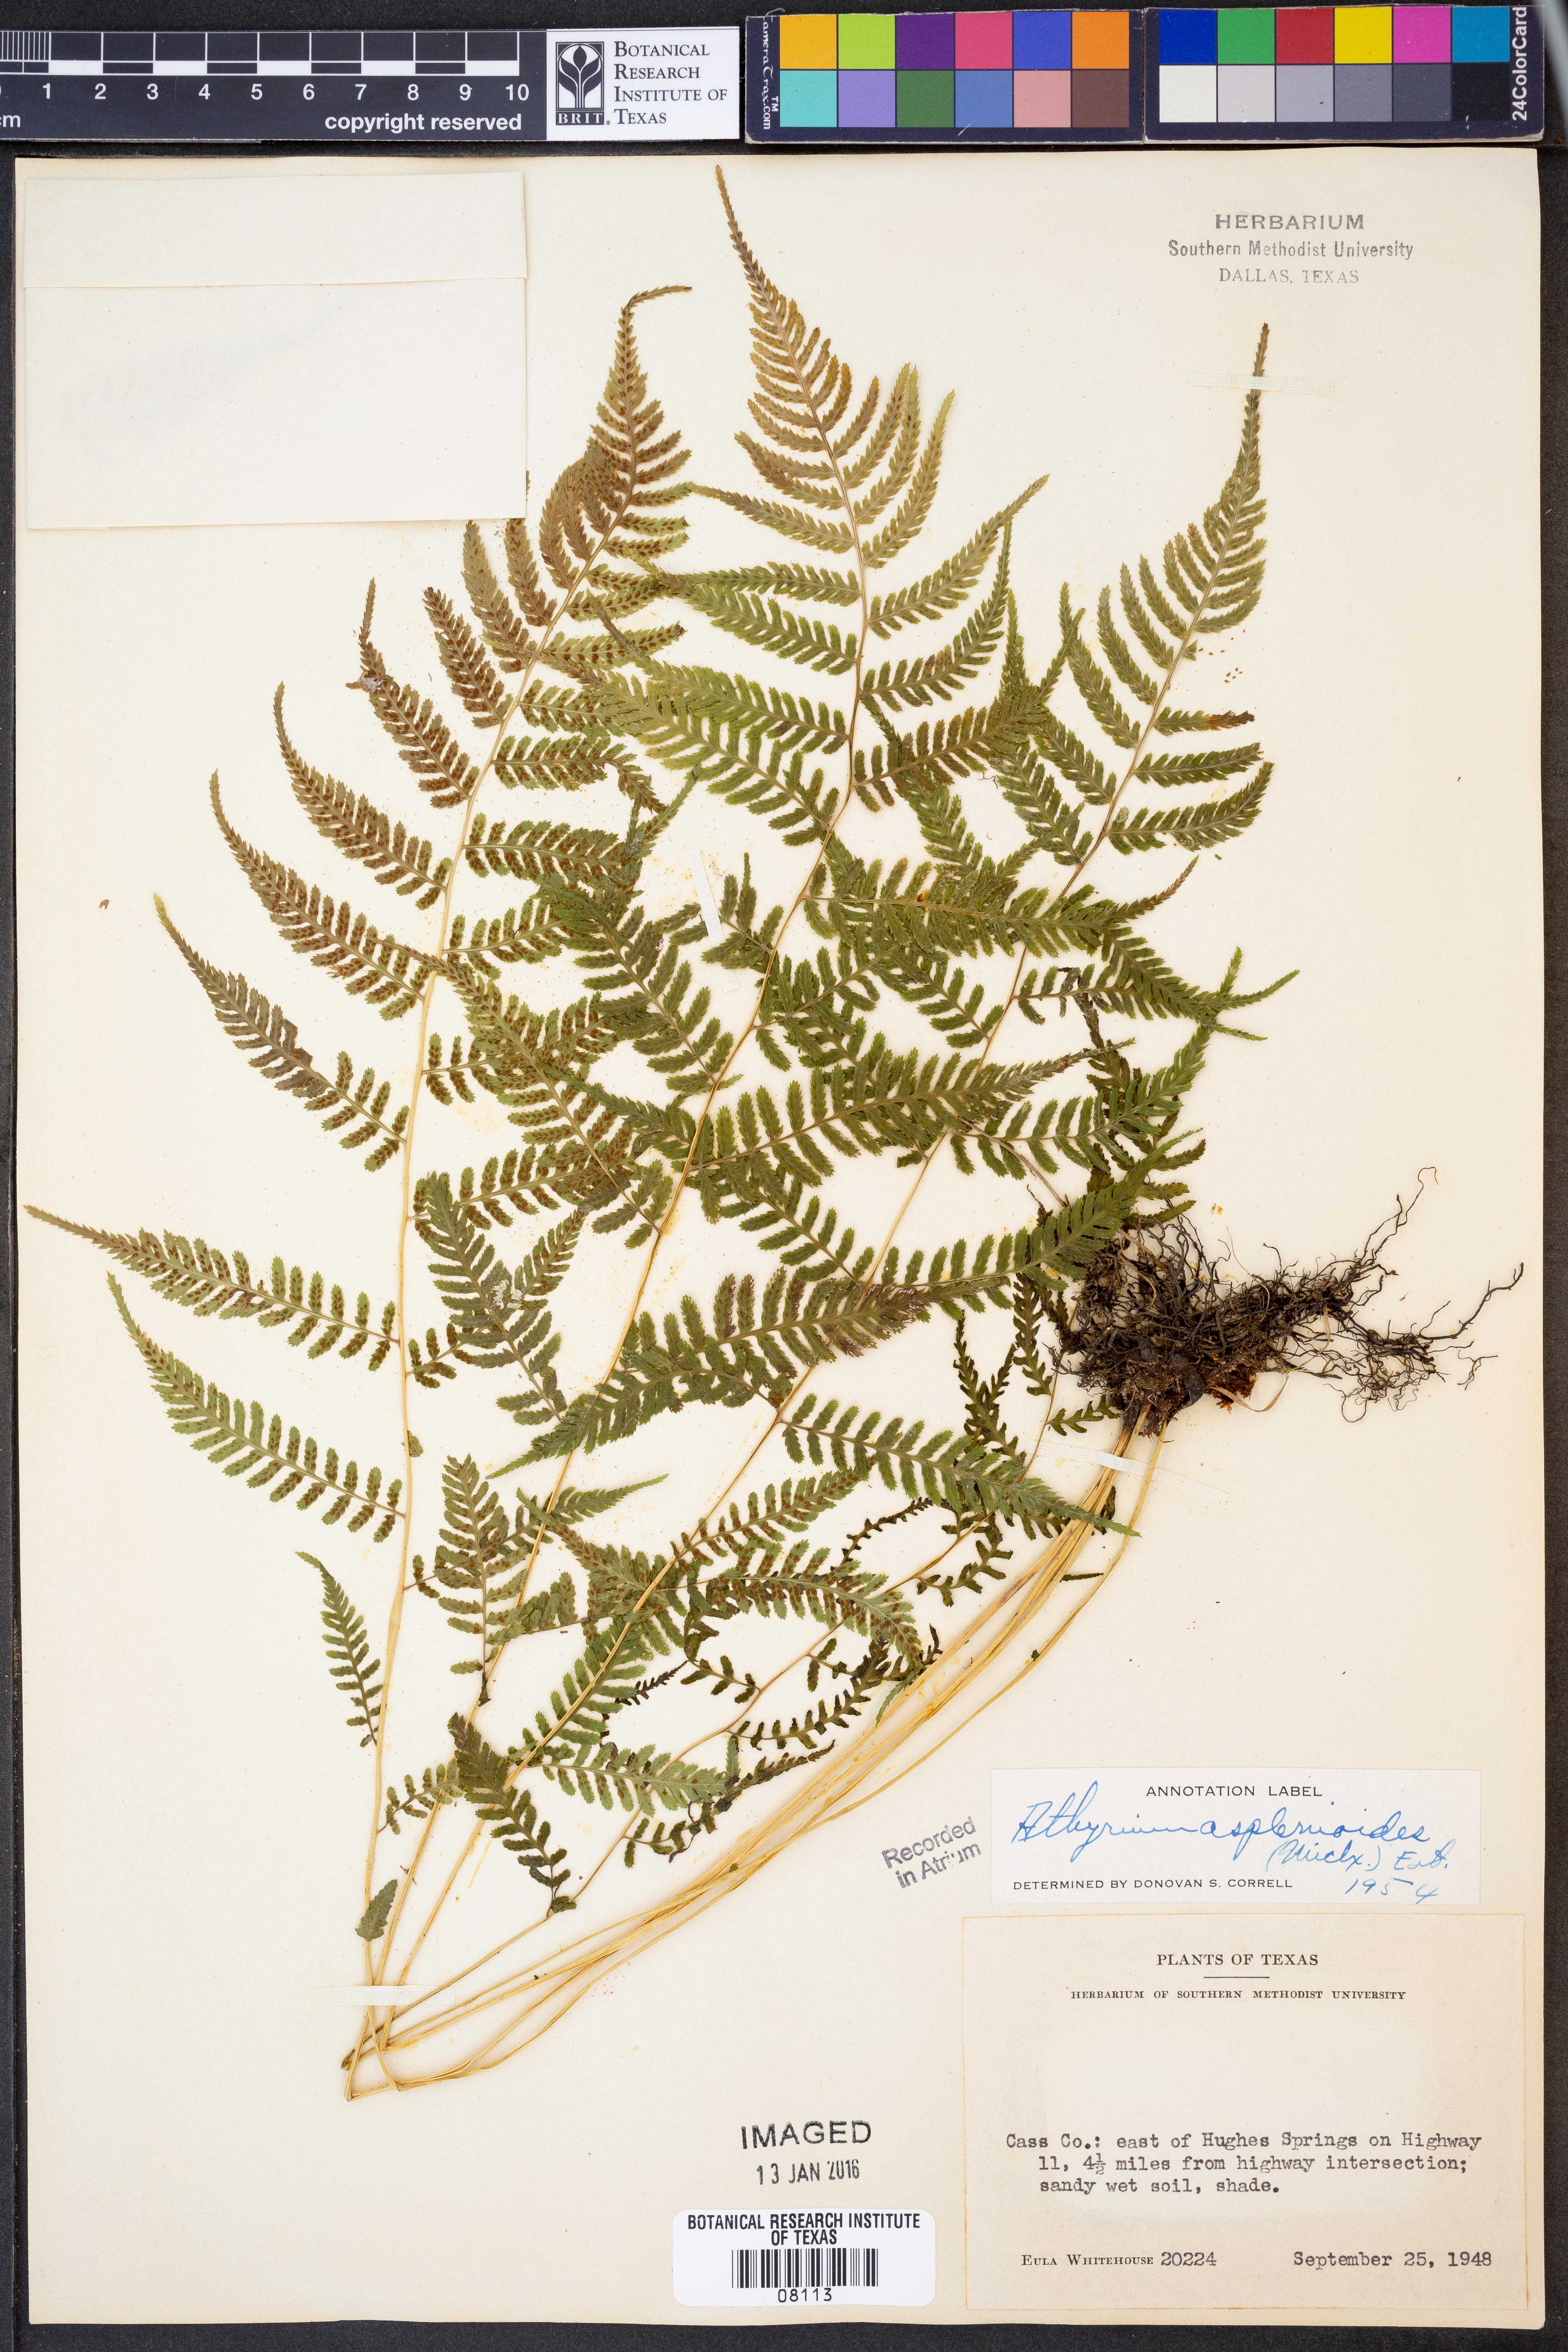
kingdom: Plantae
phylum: Tracheophyta
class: Polypodiopsida
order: Polypodiales
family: Athyriaceae
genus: Athyrium
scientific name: Athyrium asplenioides
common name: Southern lady fern
